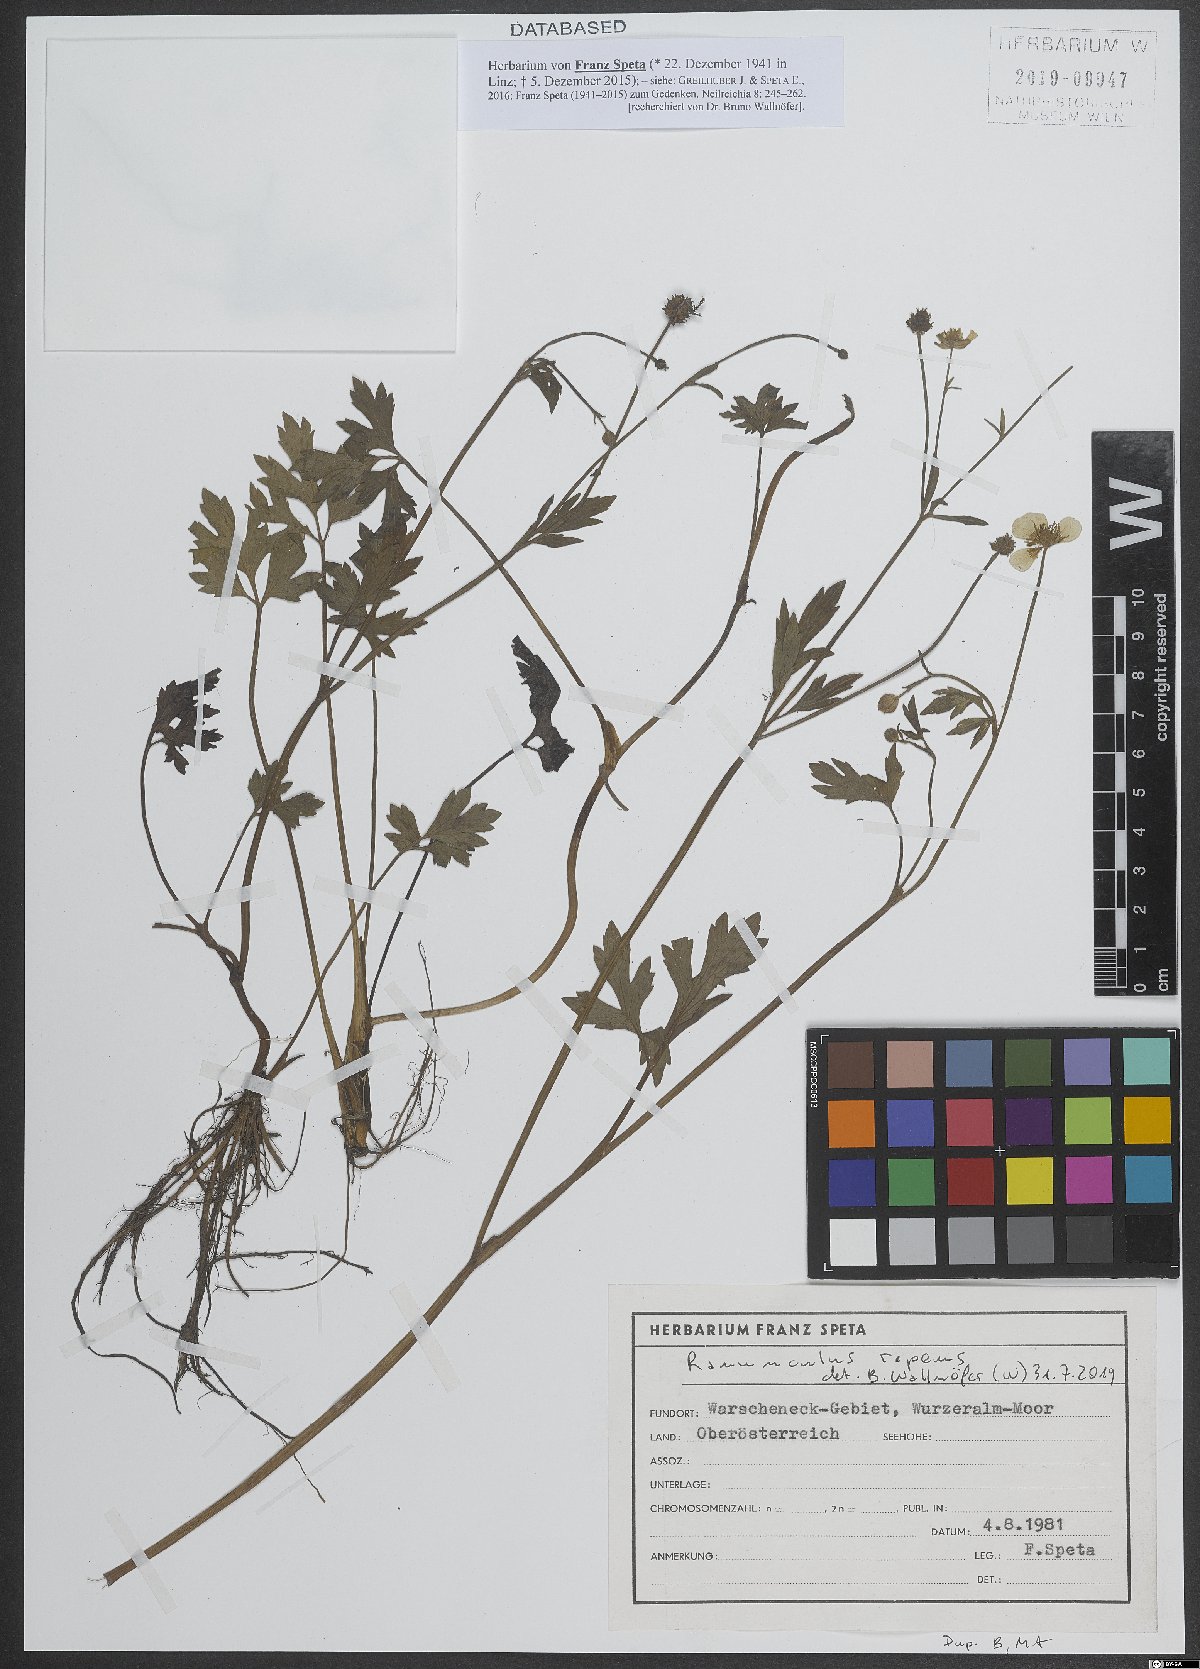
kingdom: Plantae
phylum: Tracheophyta
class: Magnoliopsida
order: Ranunculales
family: Ranunculaceae
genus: Ranunculus
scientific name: Ranunculus repens
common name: Creeping buttercup
